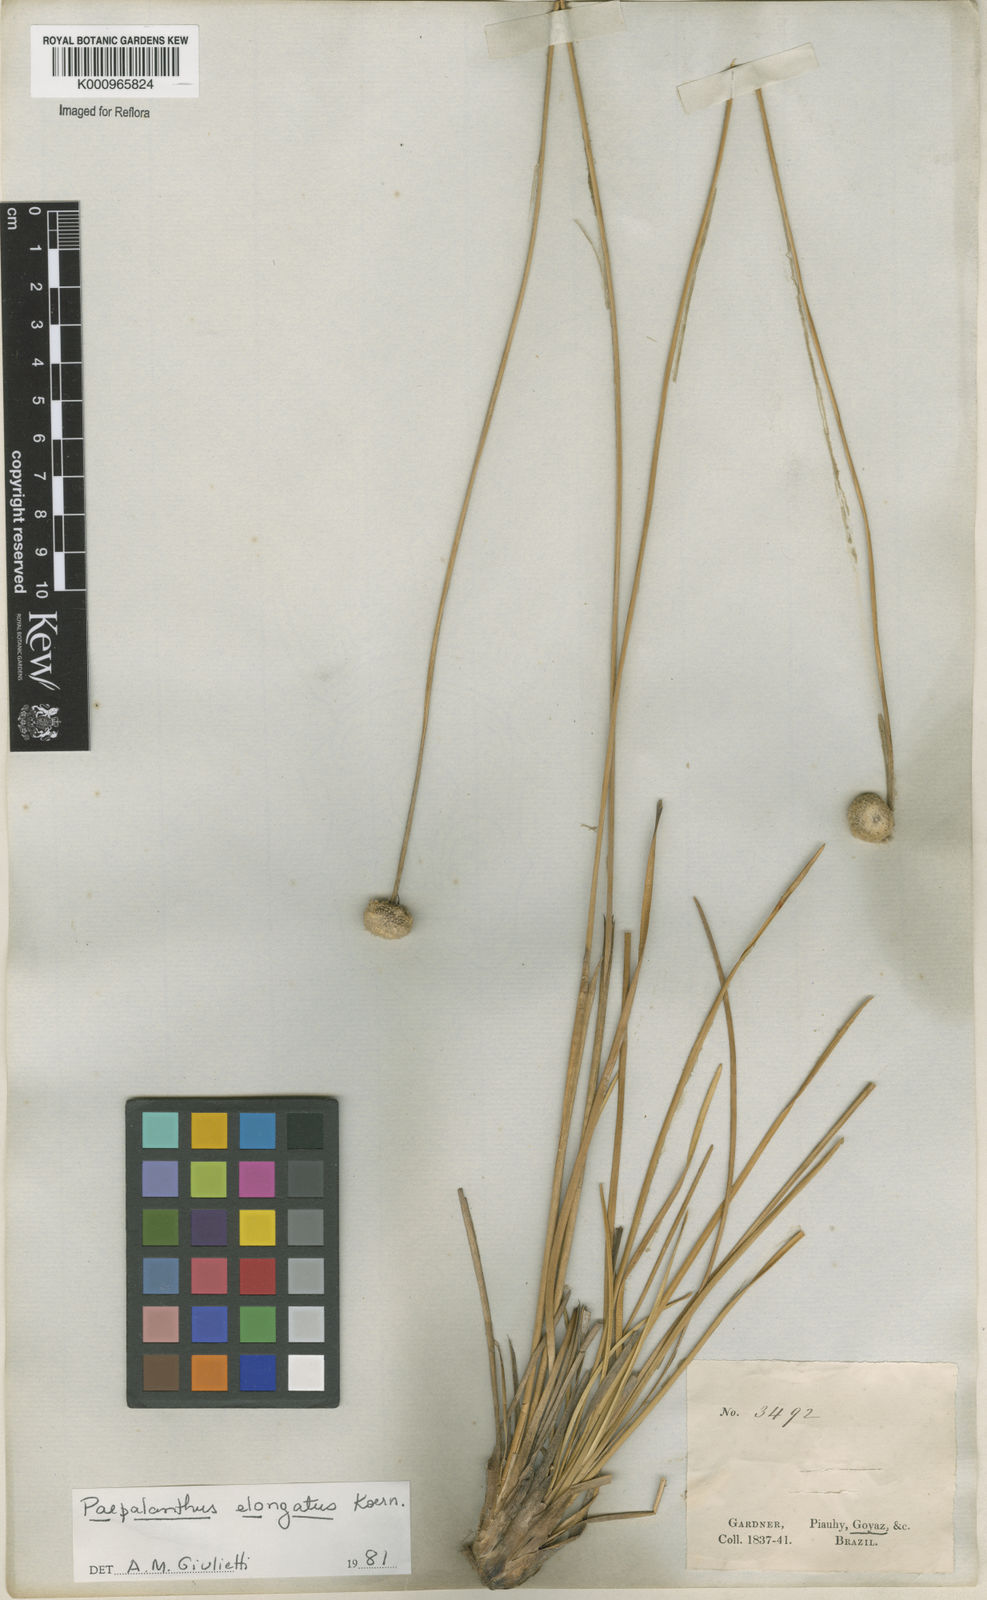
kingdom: Plantae
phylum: Tracheophyta
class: Liliopsida
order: Poales
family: Eriocaulaceae
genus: Paepalanthus
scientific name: Paepalanthus
